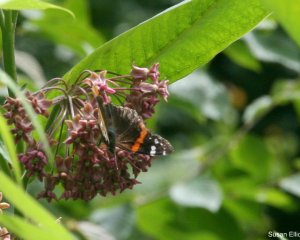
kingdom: Animalia
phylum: Arthropoda
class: Insecta
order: Lepidoptera
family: Nymphalidae
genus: Vanessa
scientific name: Vanessa atalanta
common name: Red Admiral
